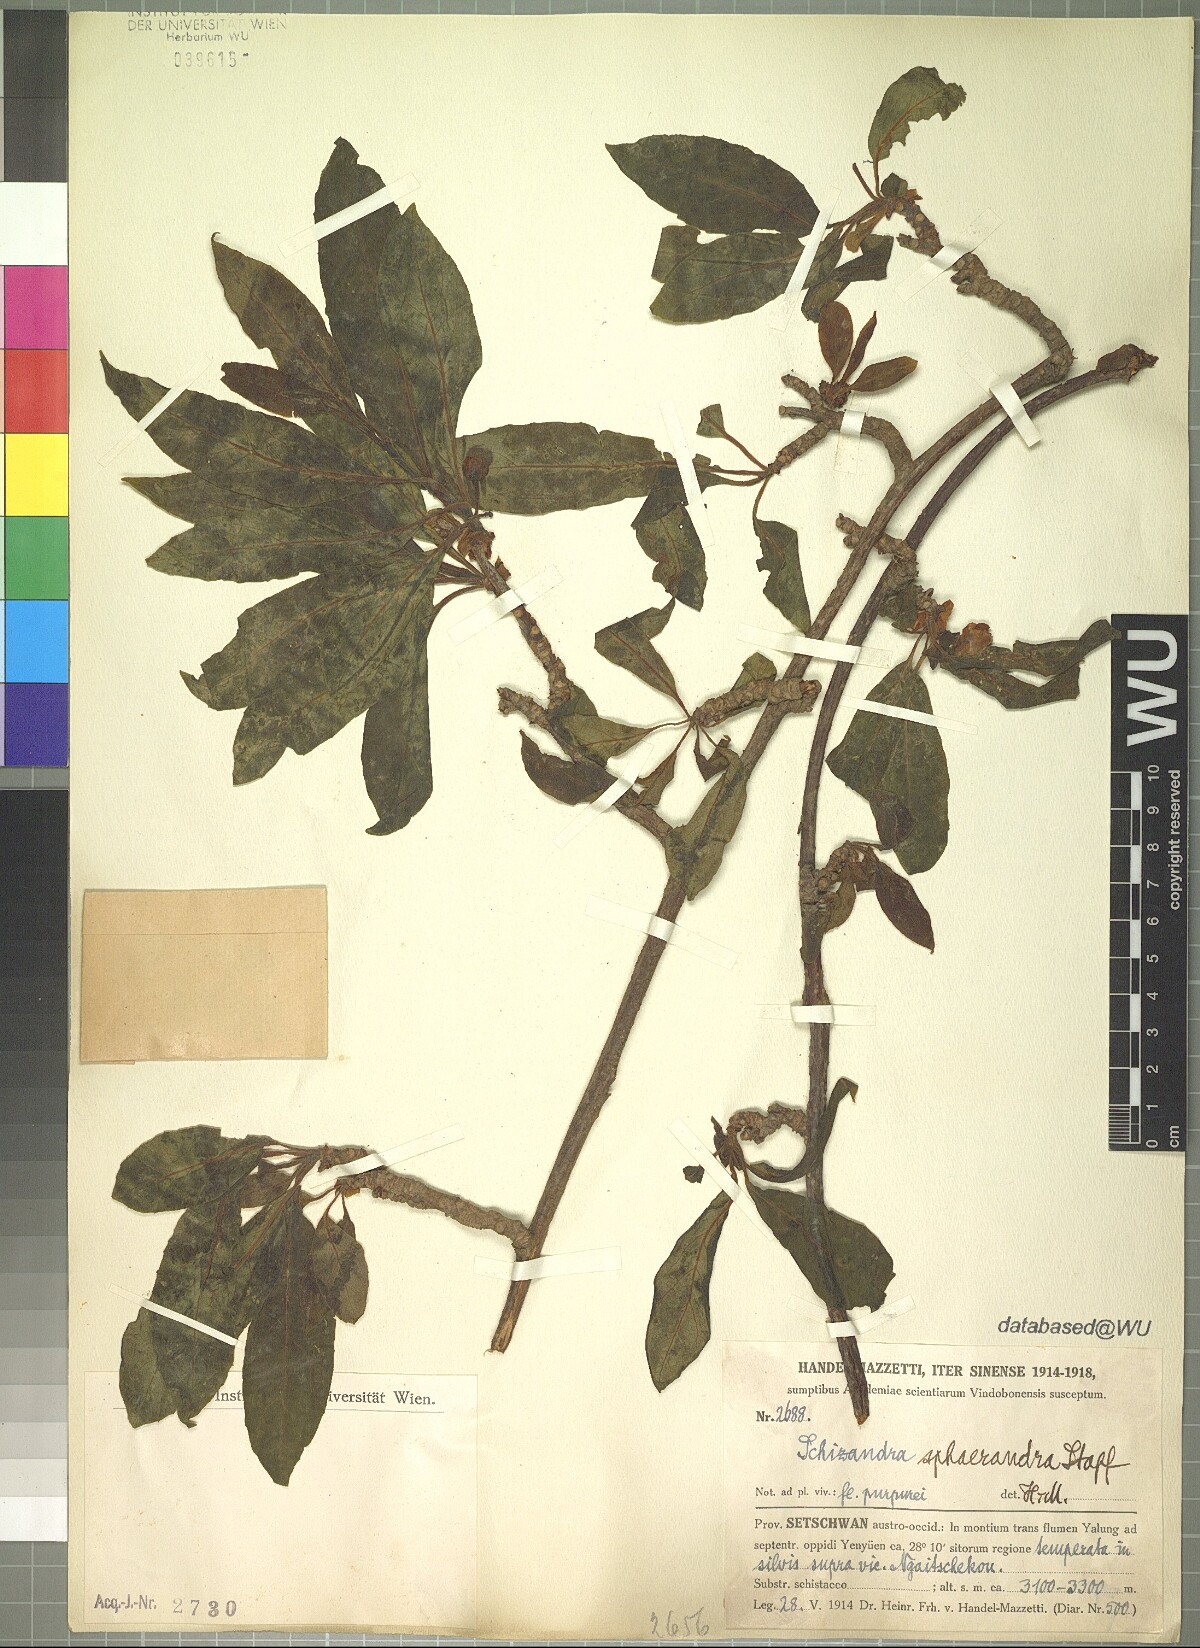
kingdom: Plantae
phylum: Tracheophyta
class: Magnoliopsida
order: Austrobaileyales
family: Schisandraceae
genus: Schisandra
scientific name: Schisandra sphaerandra
